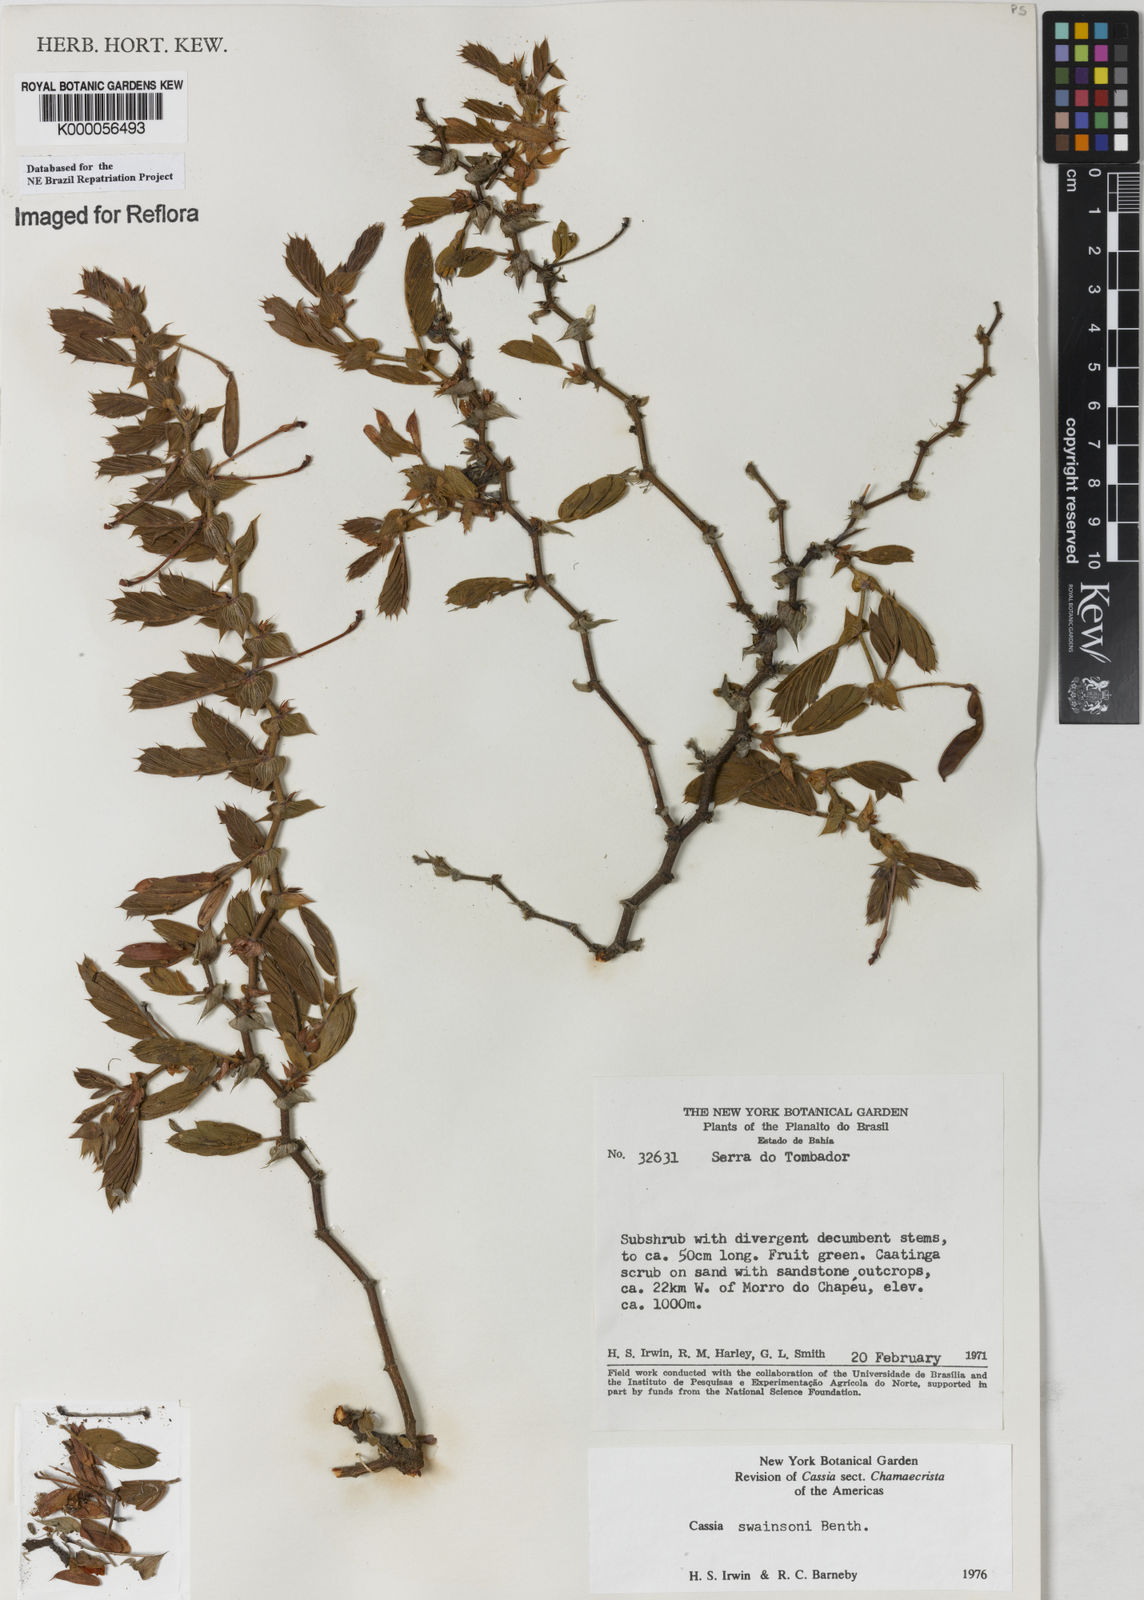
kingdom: Plantae
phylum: Tracheophyta
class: Magnoliopsida
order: Fabales
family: Fabaceae
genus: Chamaecrista
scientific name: Chamaecrista swainsonii
